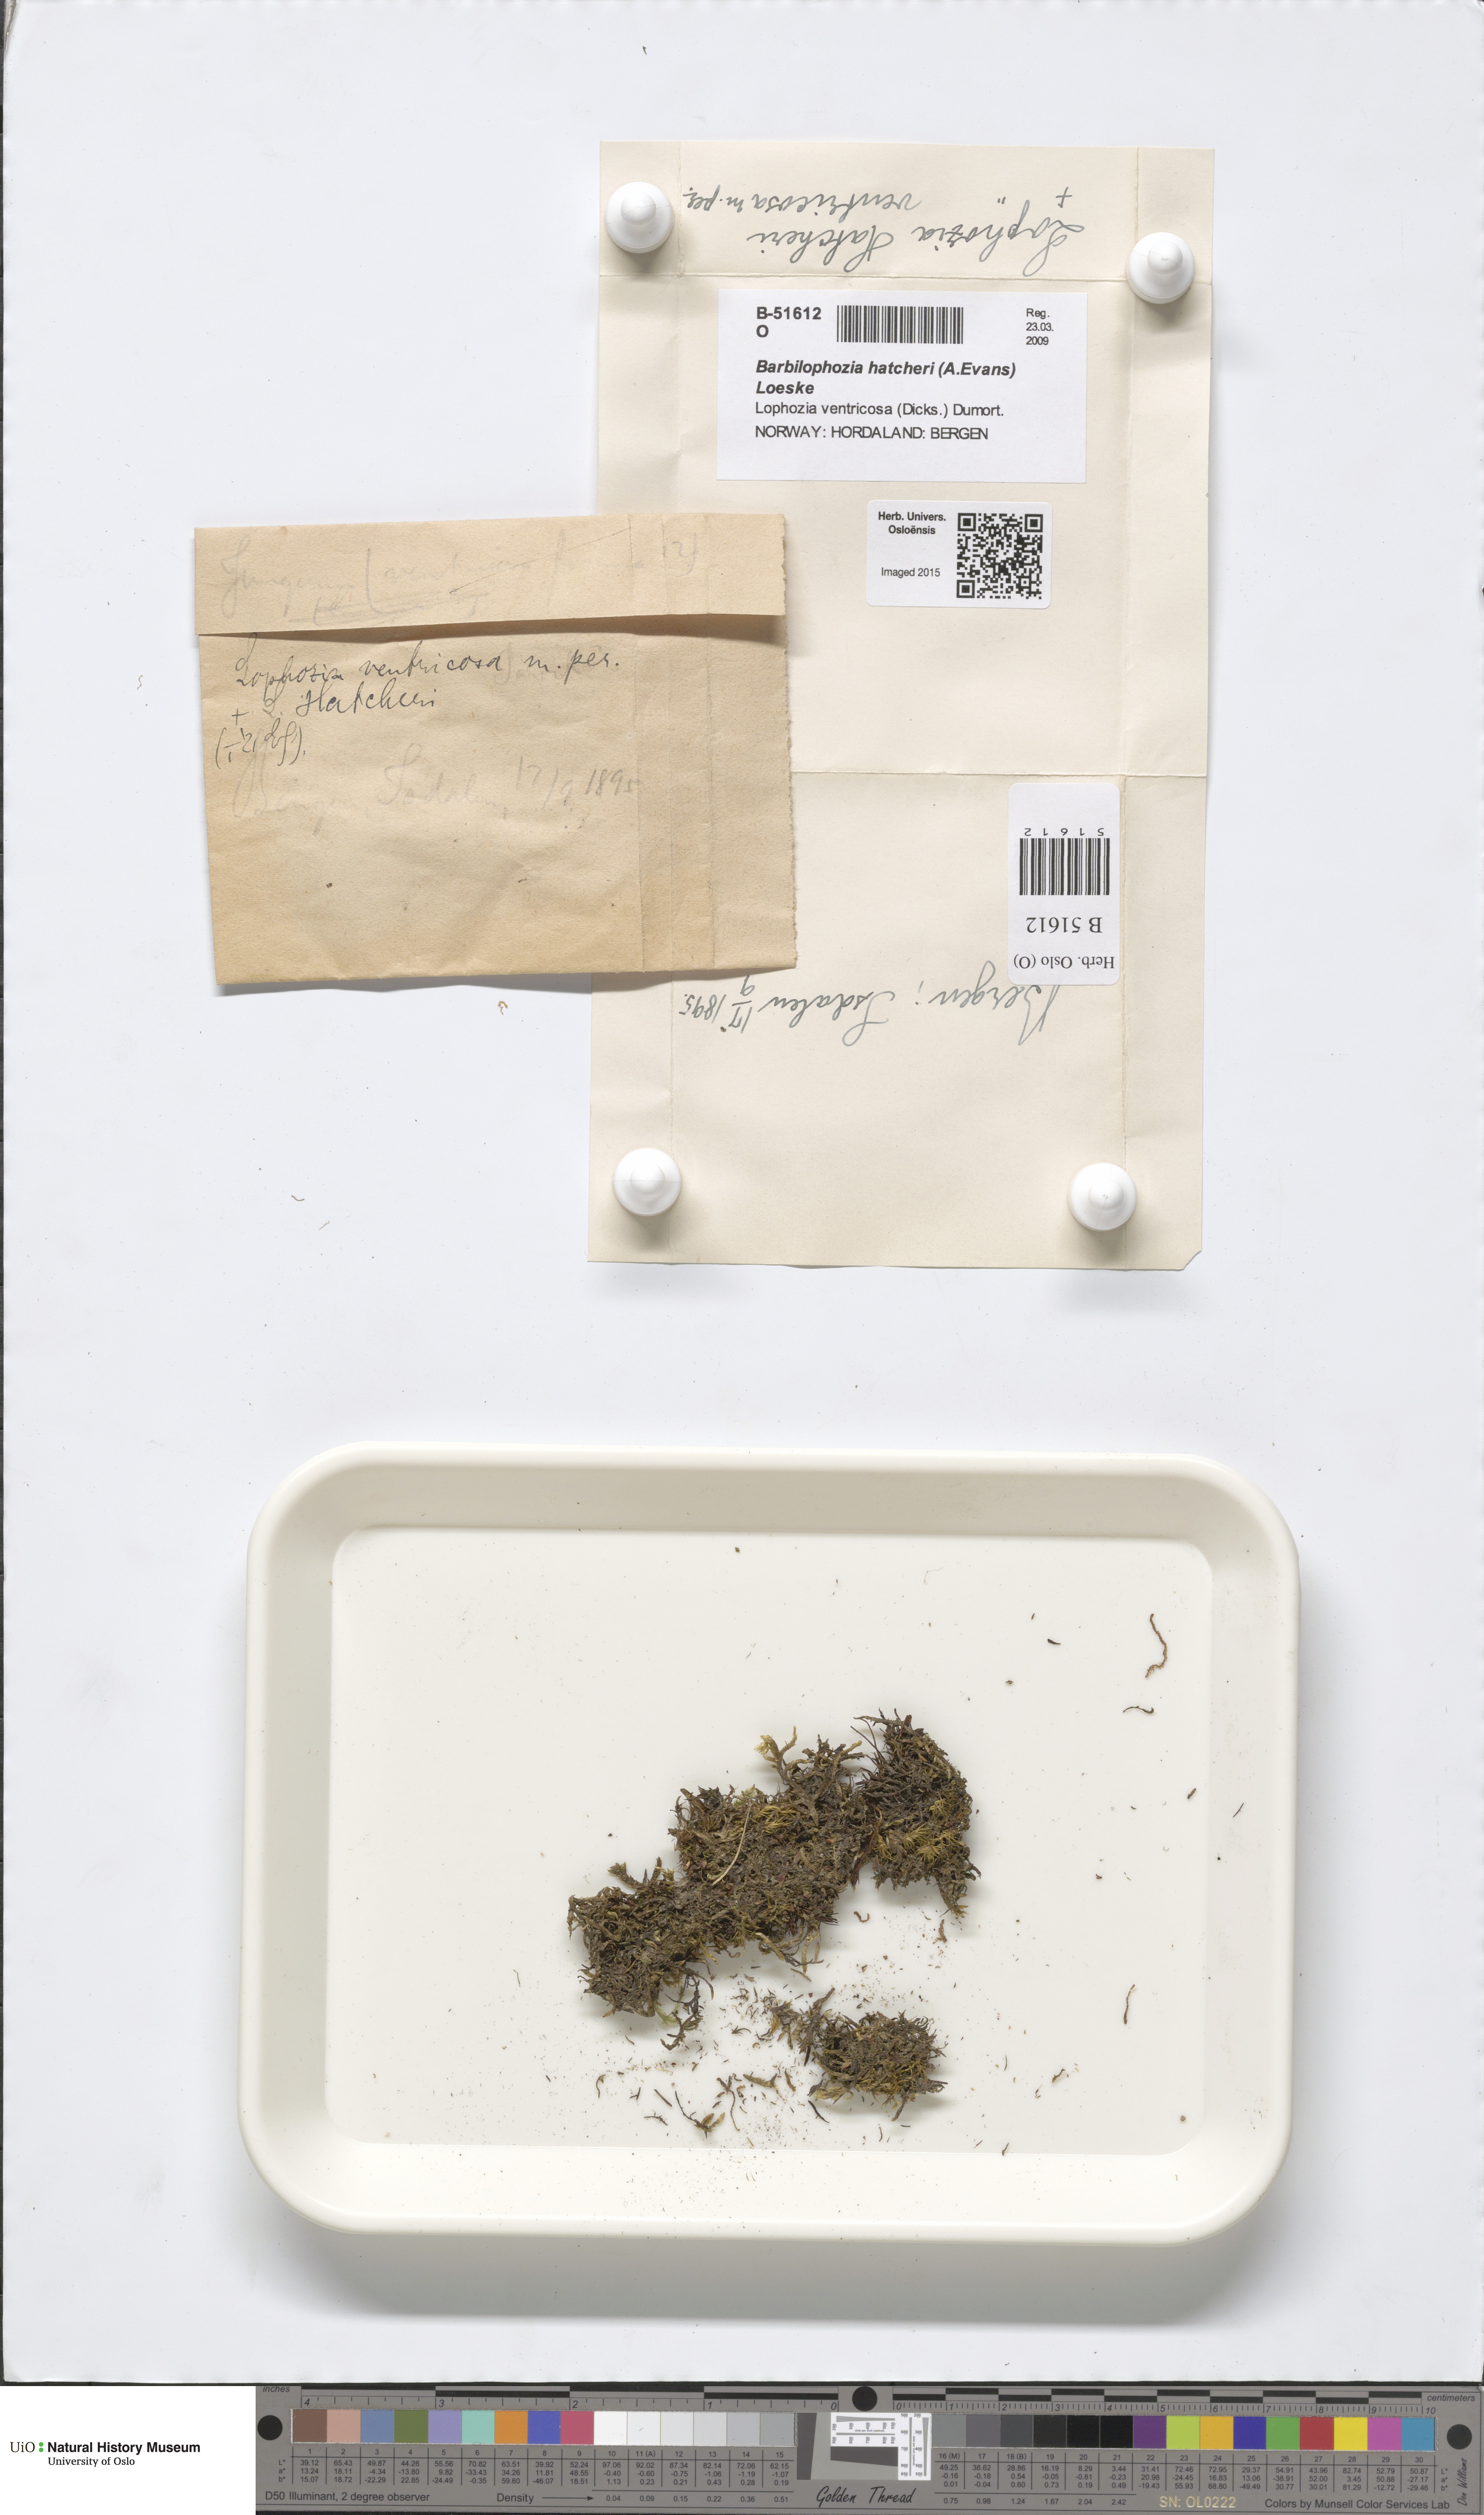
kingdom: Plantae
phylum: Marchantiophyta
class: Jungermanniopsida
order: Jungermanniales
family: Anastrophyllaceae
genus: Barbilophozia
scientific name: Barbilophozia hatcheri
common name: Hatcher s pawwort
